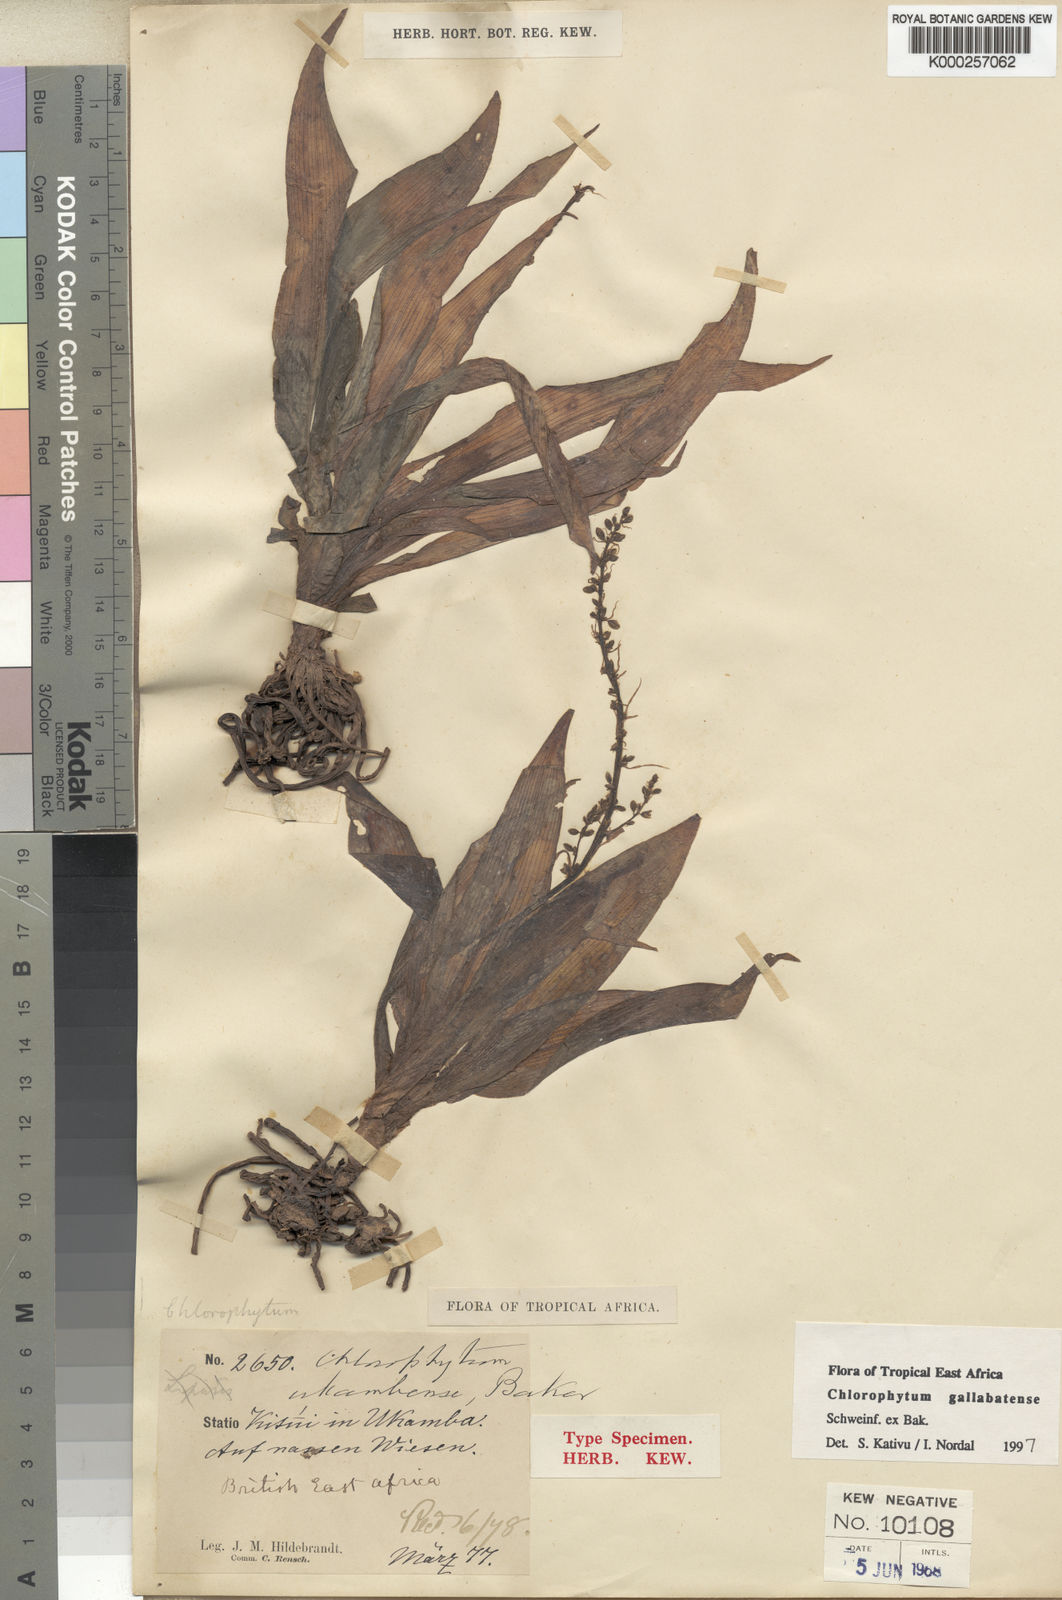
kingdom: Plantae
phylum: Tracheophyta
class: Liliopsida
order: Asparagales
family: Asparagaceae
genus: Chlorophytum
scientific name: Chlorophytum gallabatense
